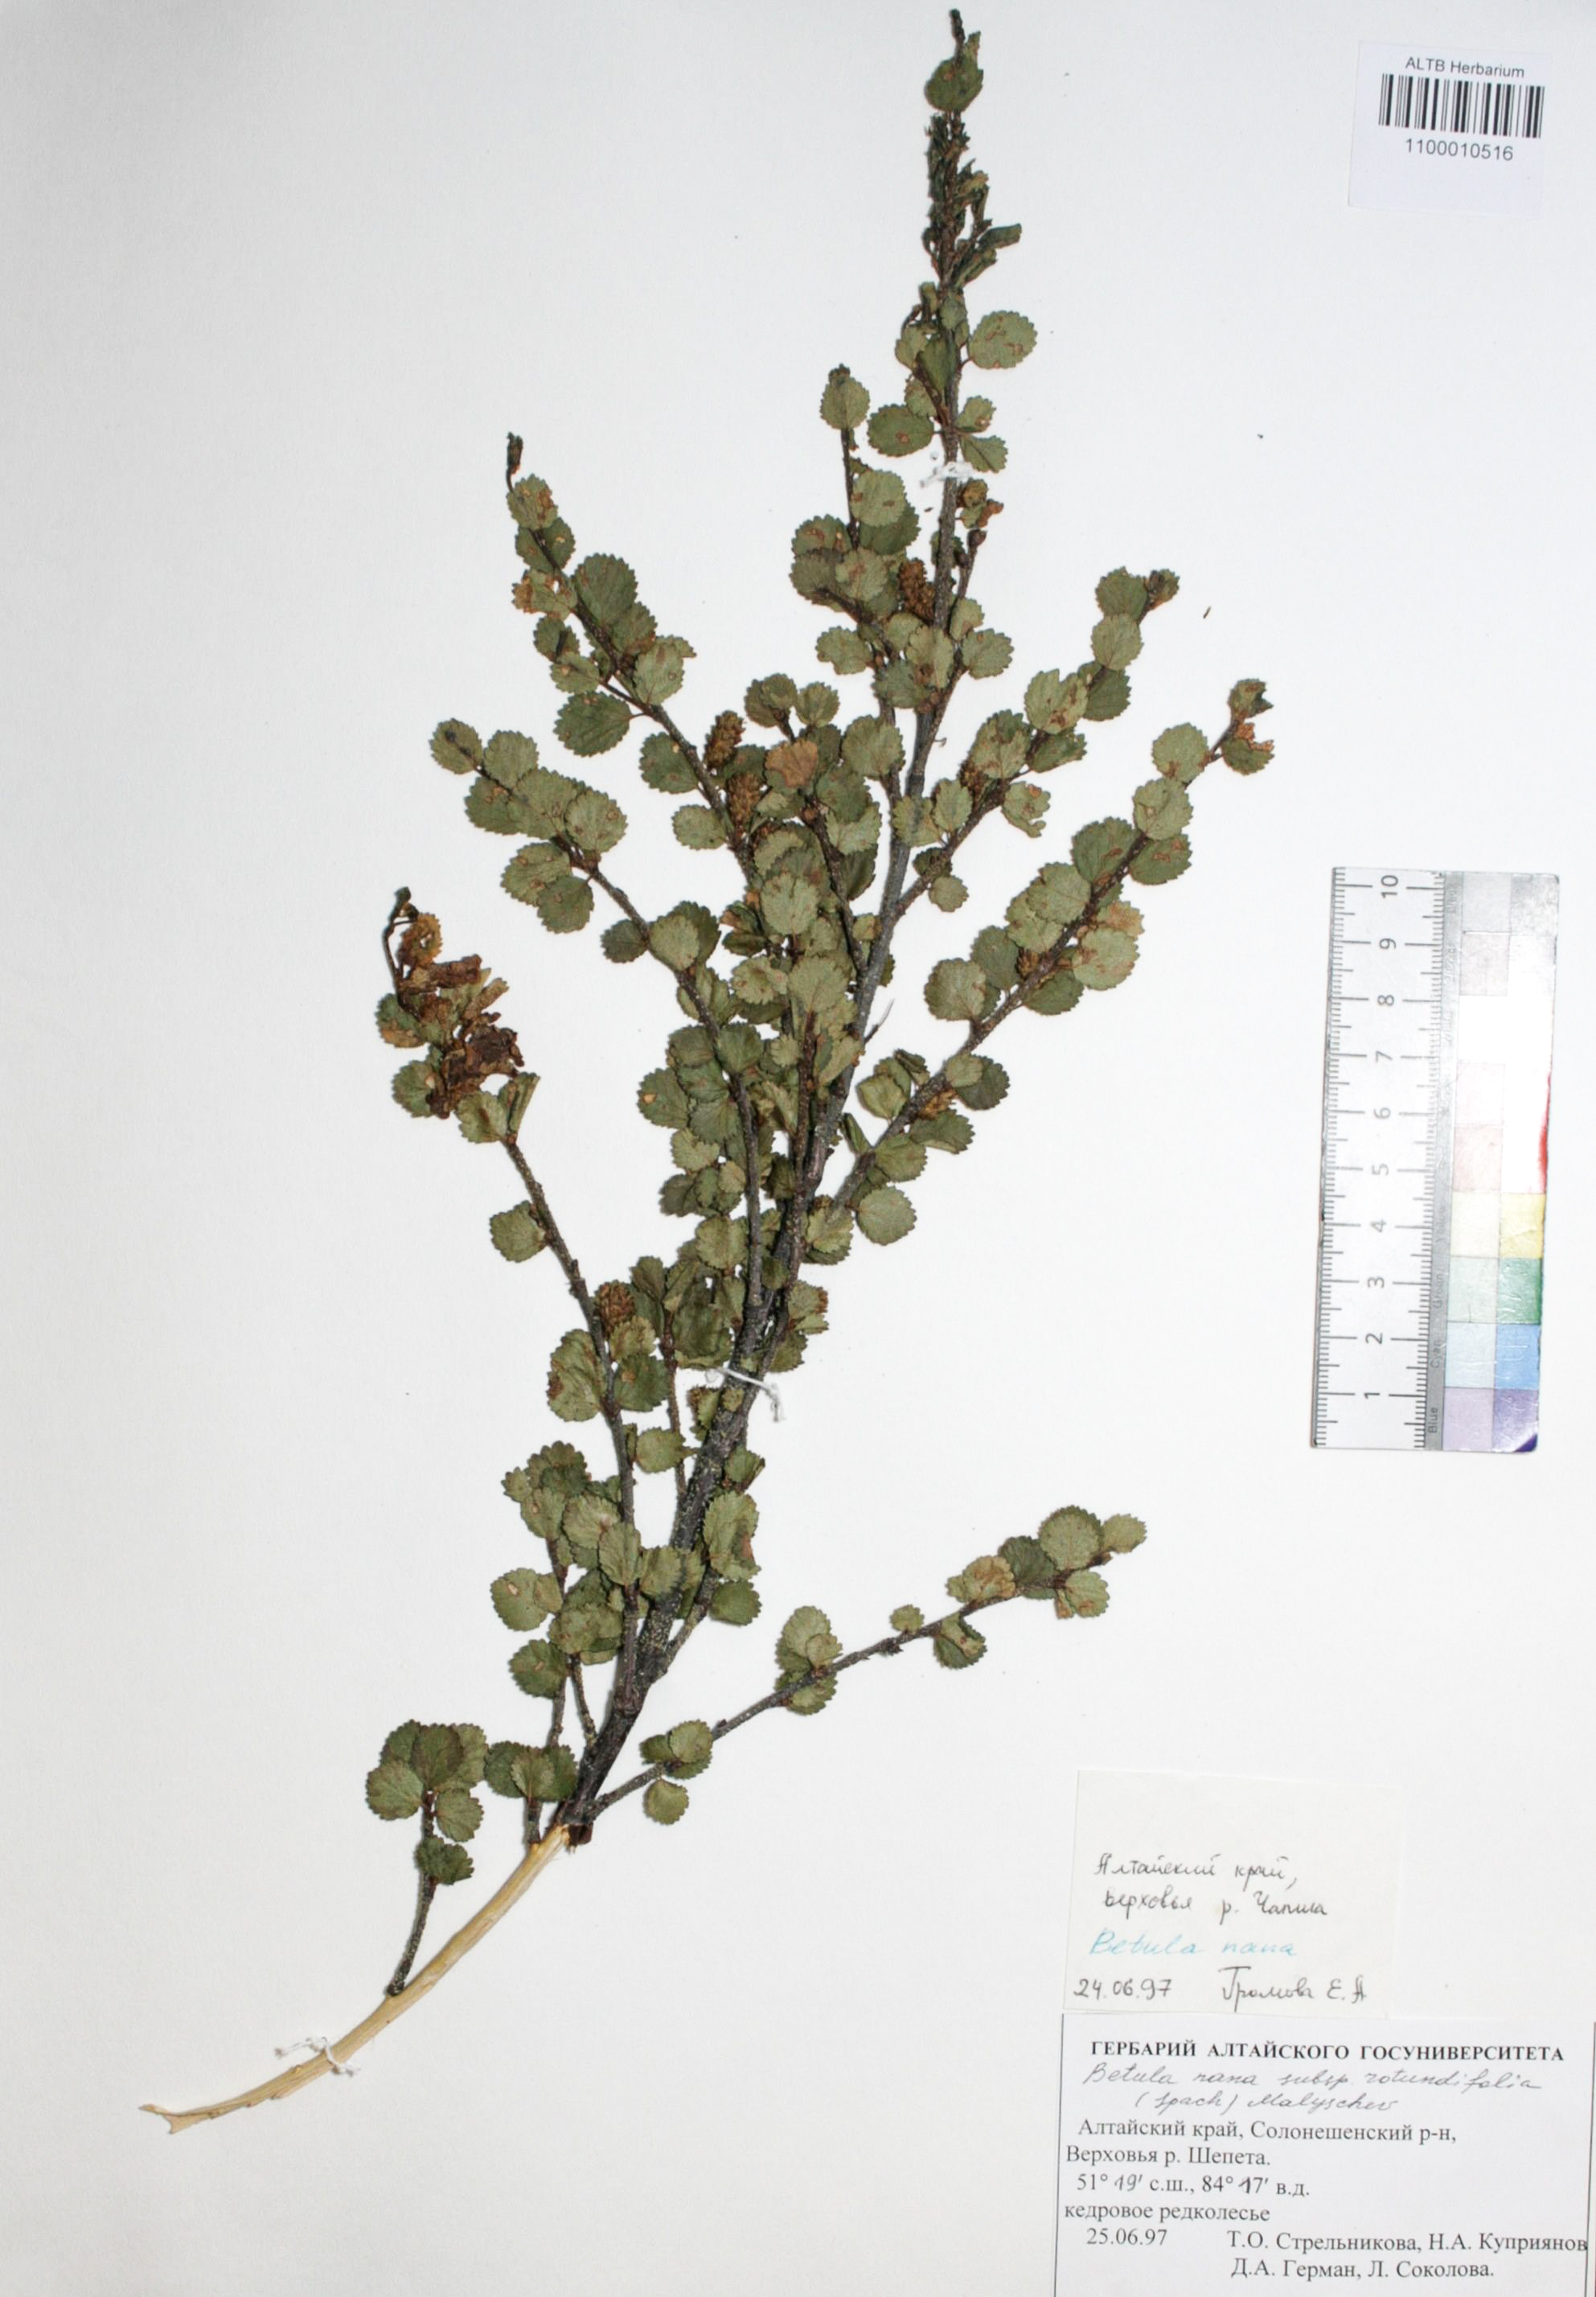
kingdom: Plantae
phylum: Tracheophyta
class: Magnoliopsida
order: Fagales
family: Betulaceae
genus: Betula
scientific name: Betula nana
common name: Arctic dwarf birch
